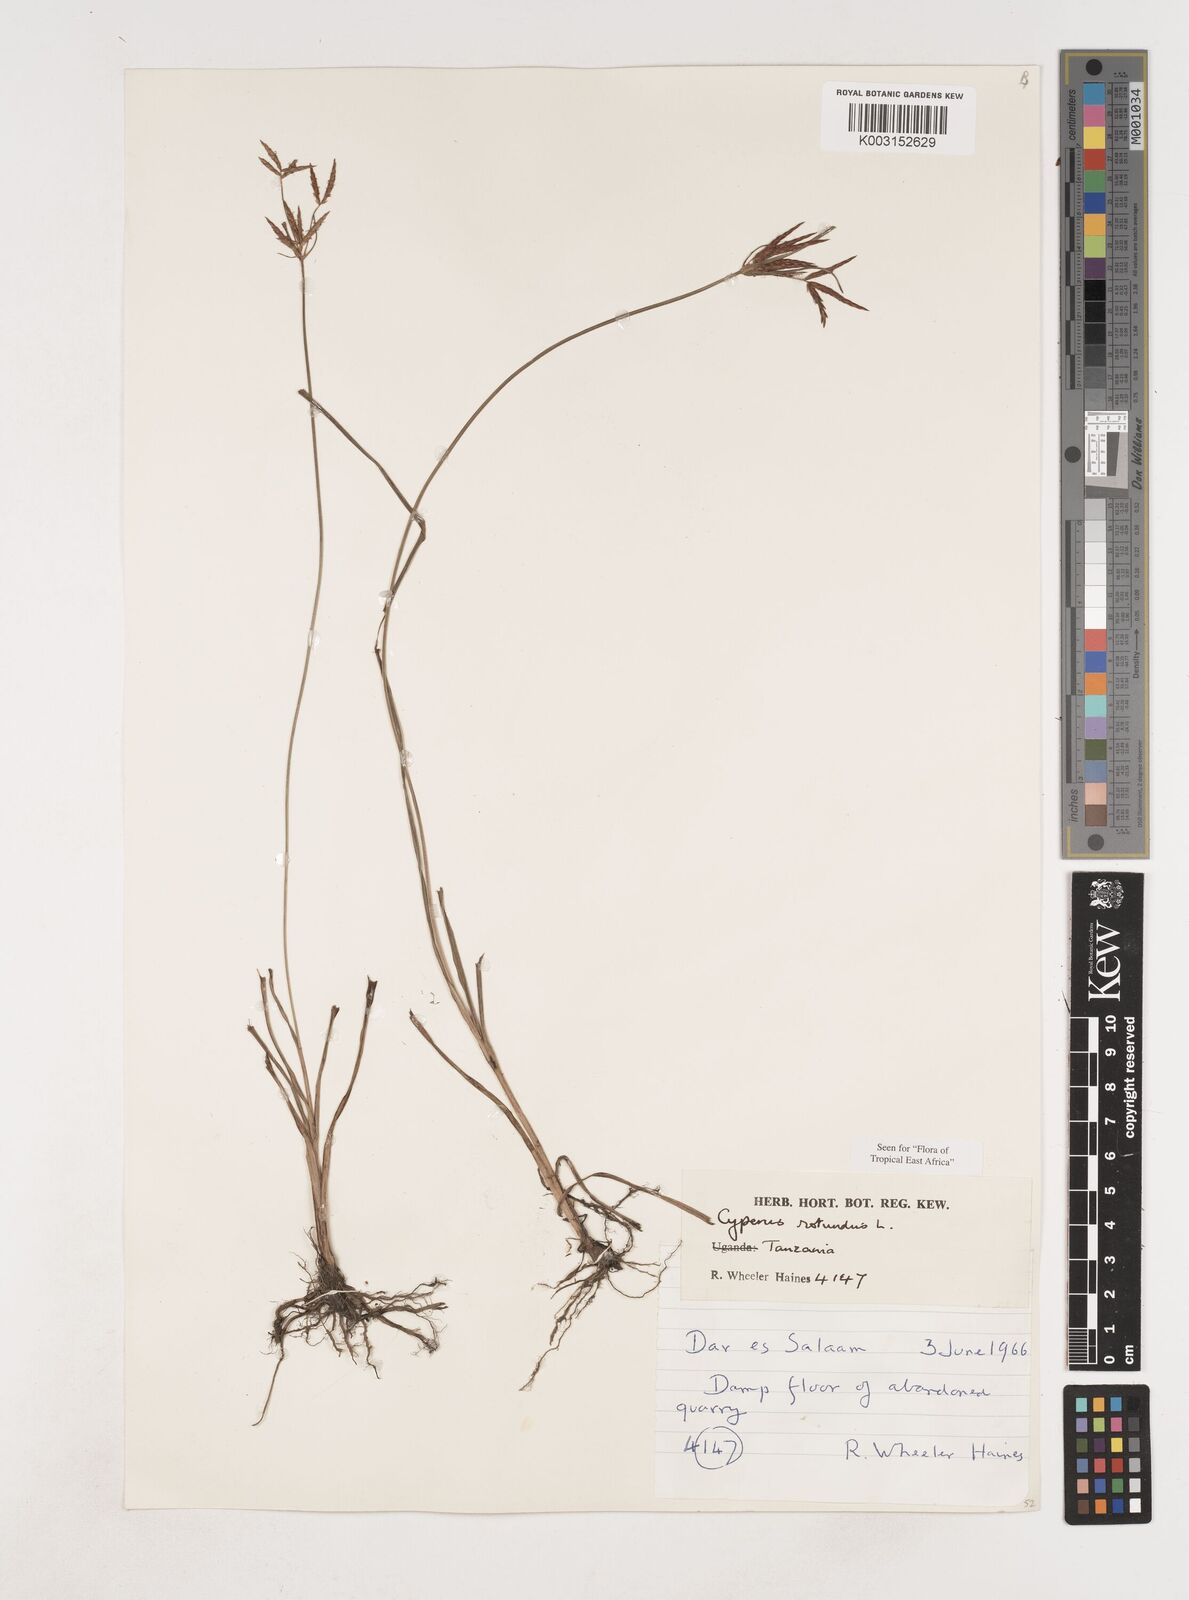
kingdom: Plantae
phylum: Tracheophyta
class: Liliopsida
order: Poales
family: Cyperaceae
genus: Cyperus
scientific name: Cyperus rotundus
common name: Nutgrass
